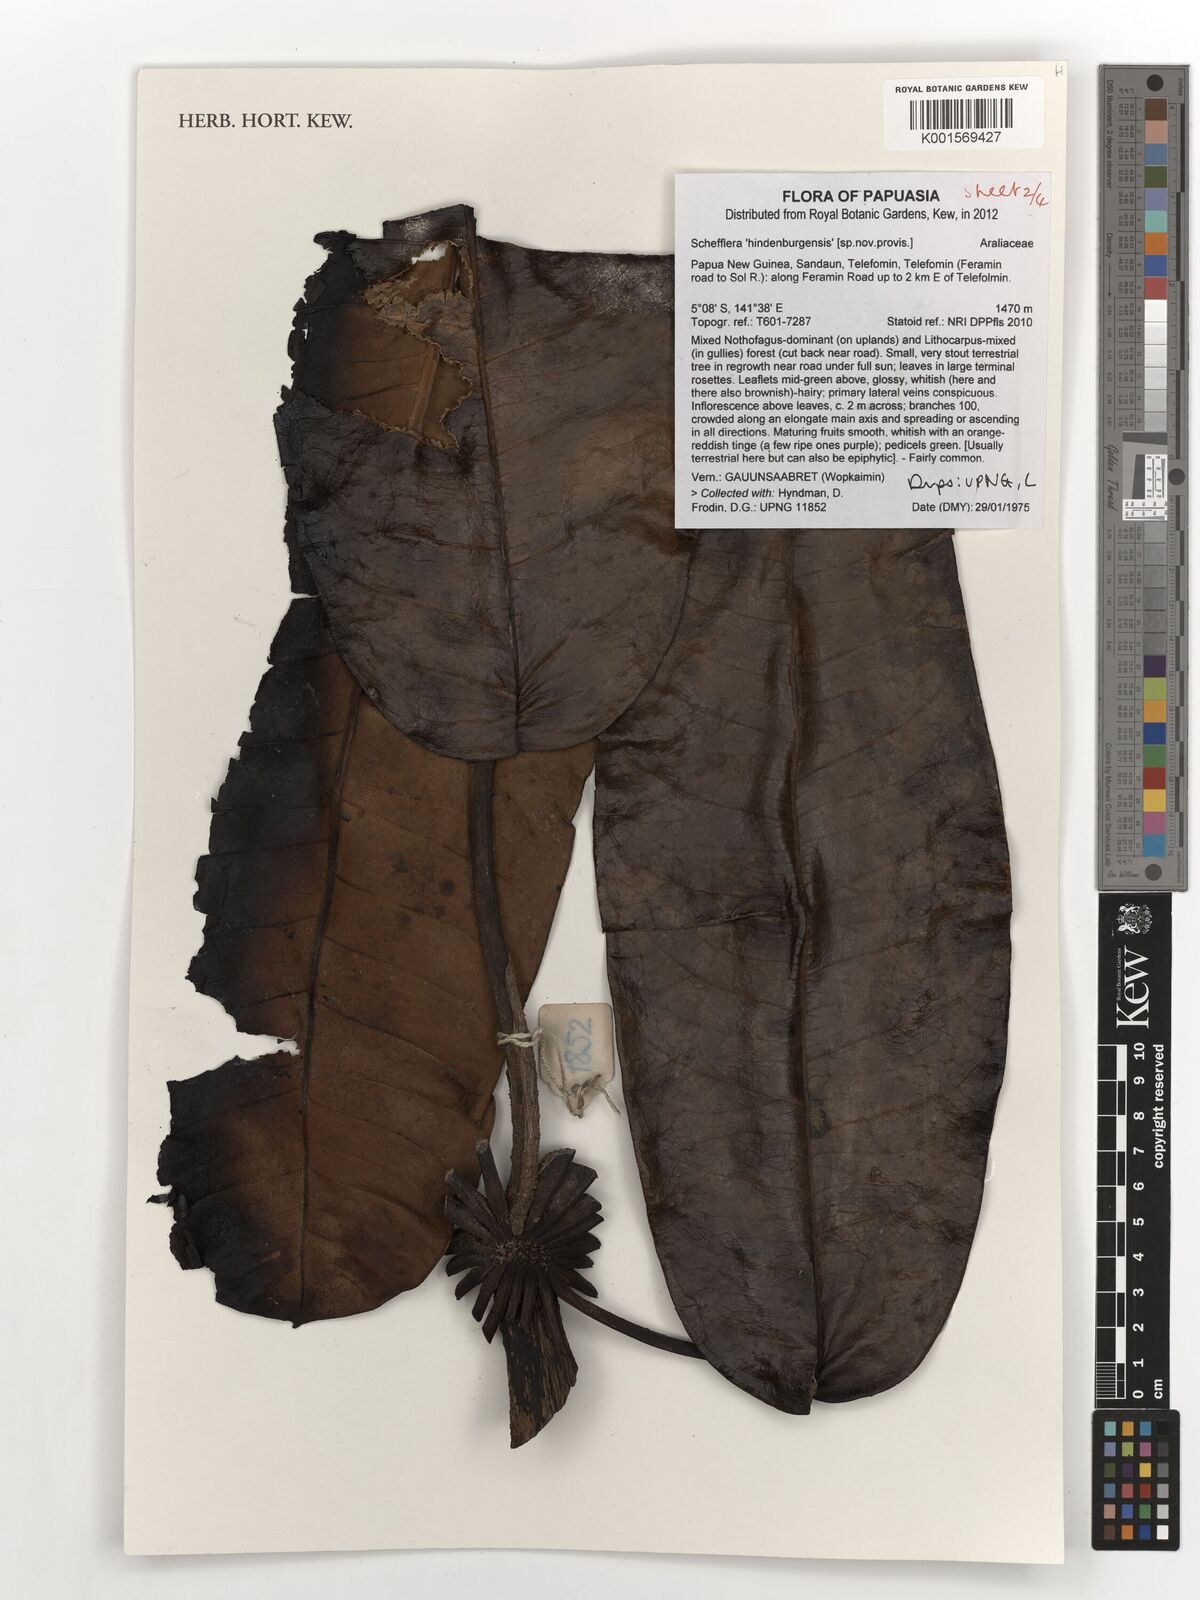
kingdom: Plantae
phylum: Tracheophyta
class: Magnoliopsida
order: Apiales
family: Araliaceae
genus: Schefflera
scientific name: Schefflera
